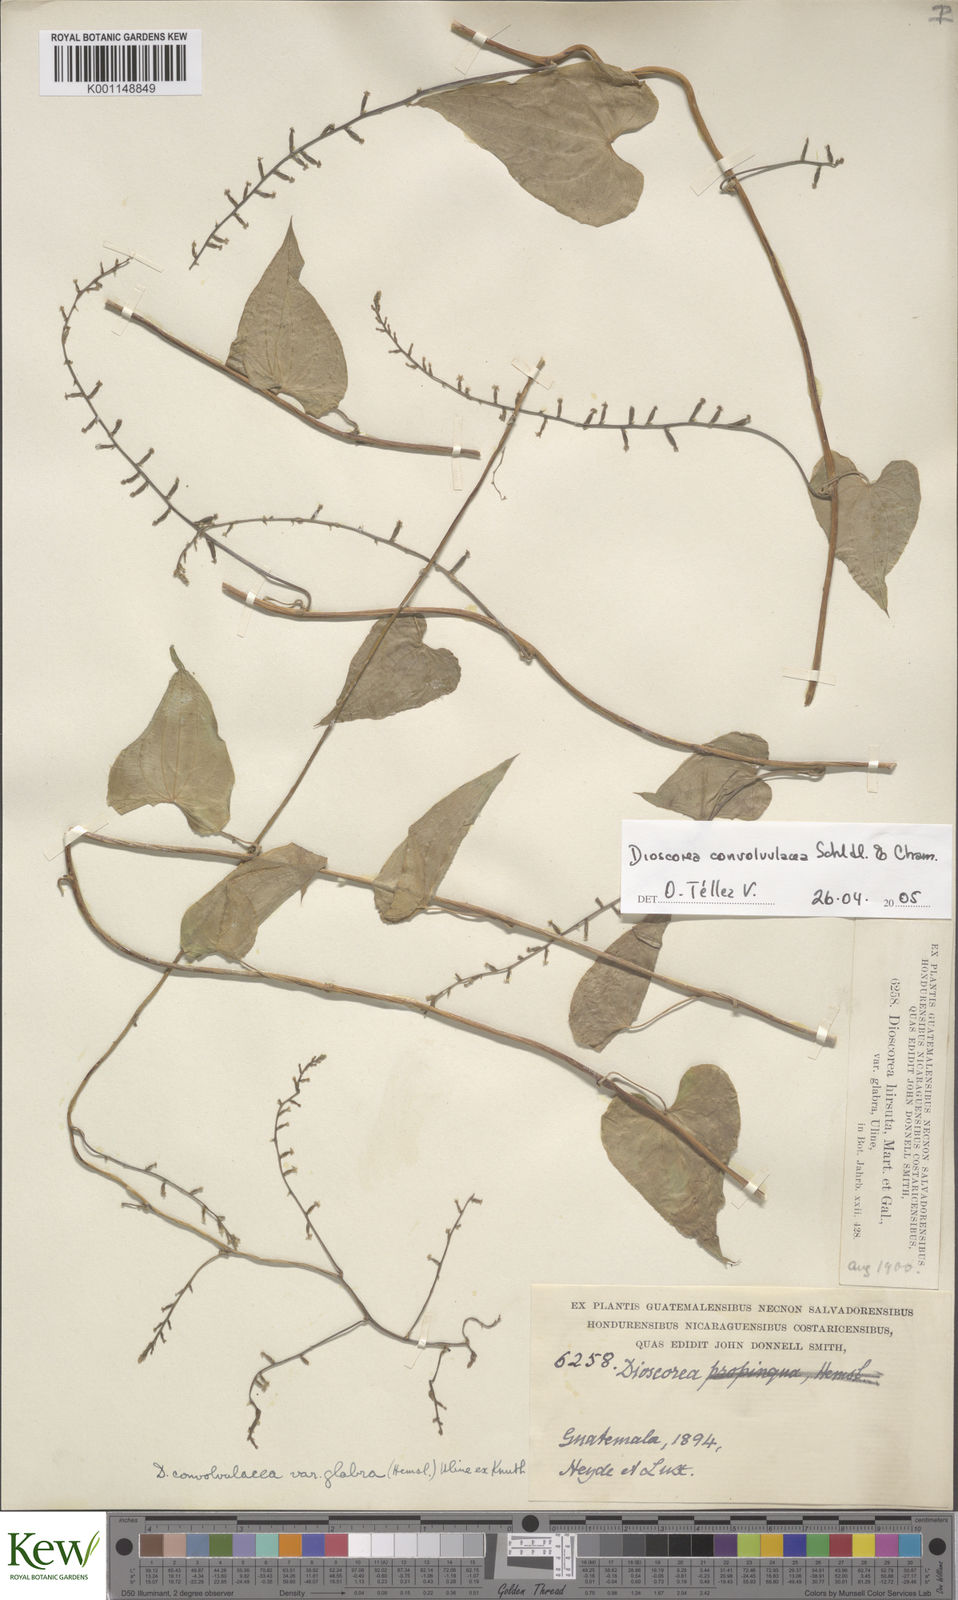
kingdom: Plantae
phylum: Tracheophyta
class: Liliopsida
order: Dioscoreales
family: Dioscoreaceae
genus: Dioscorea
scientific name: Dioscorea convolvulacea
